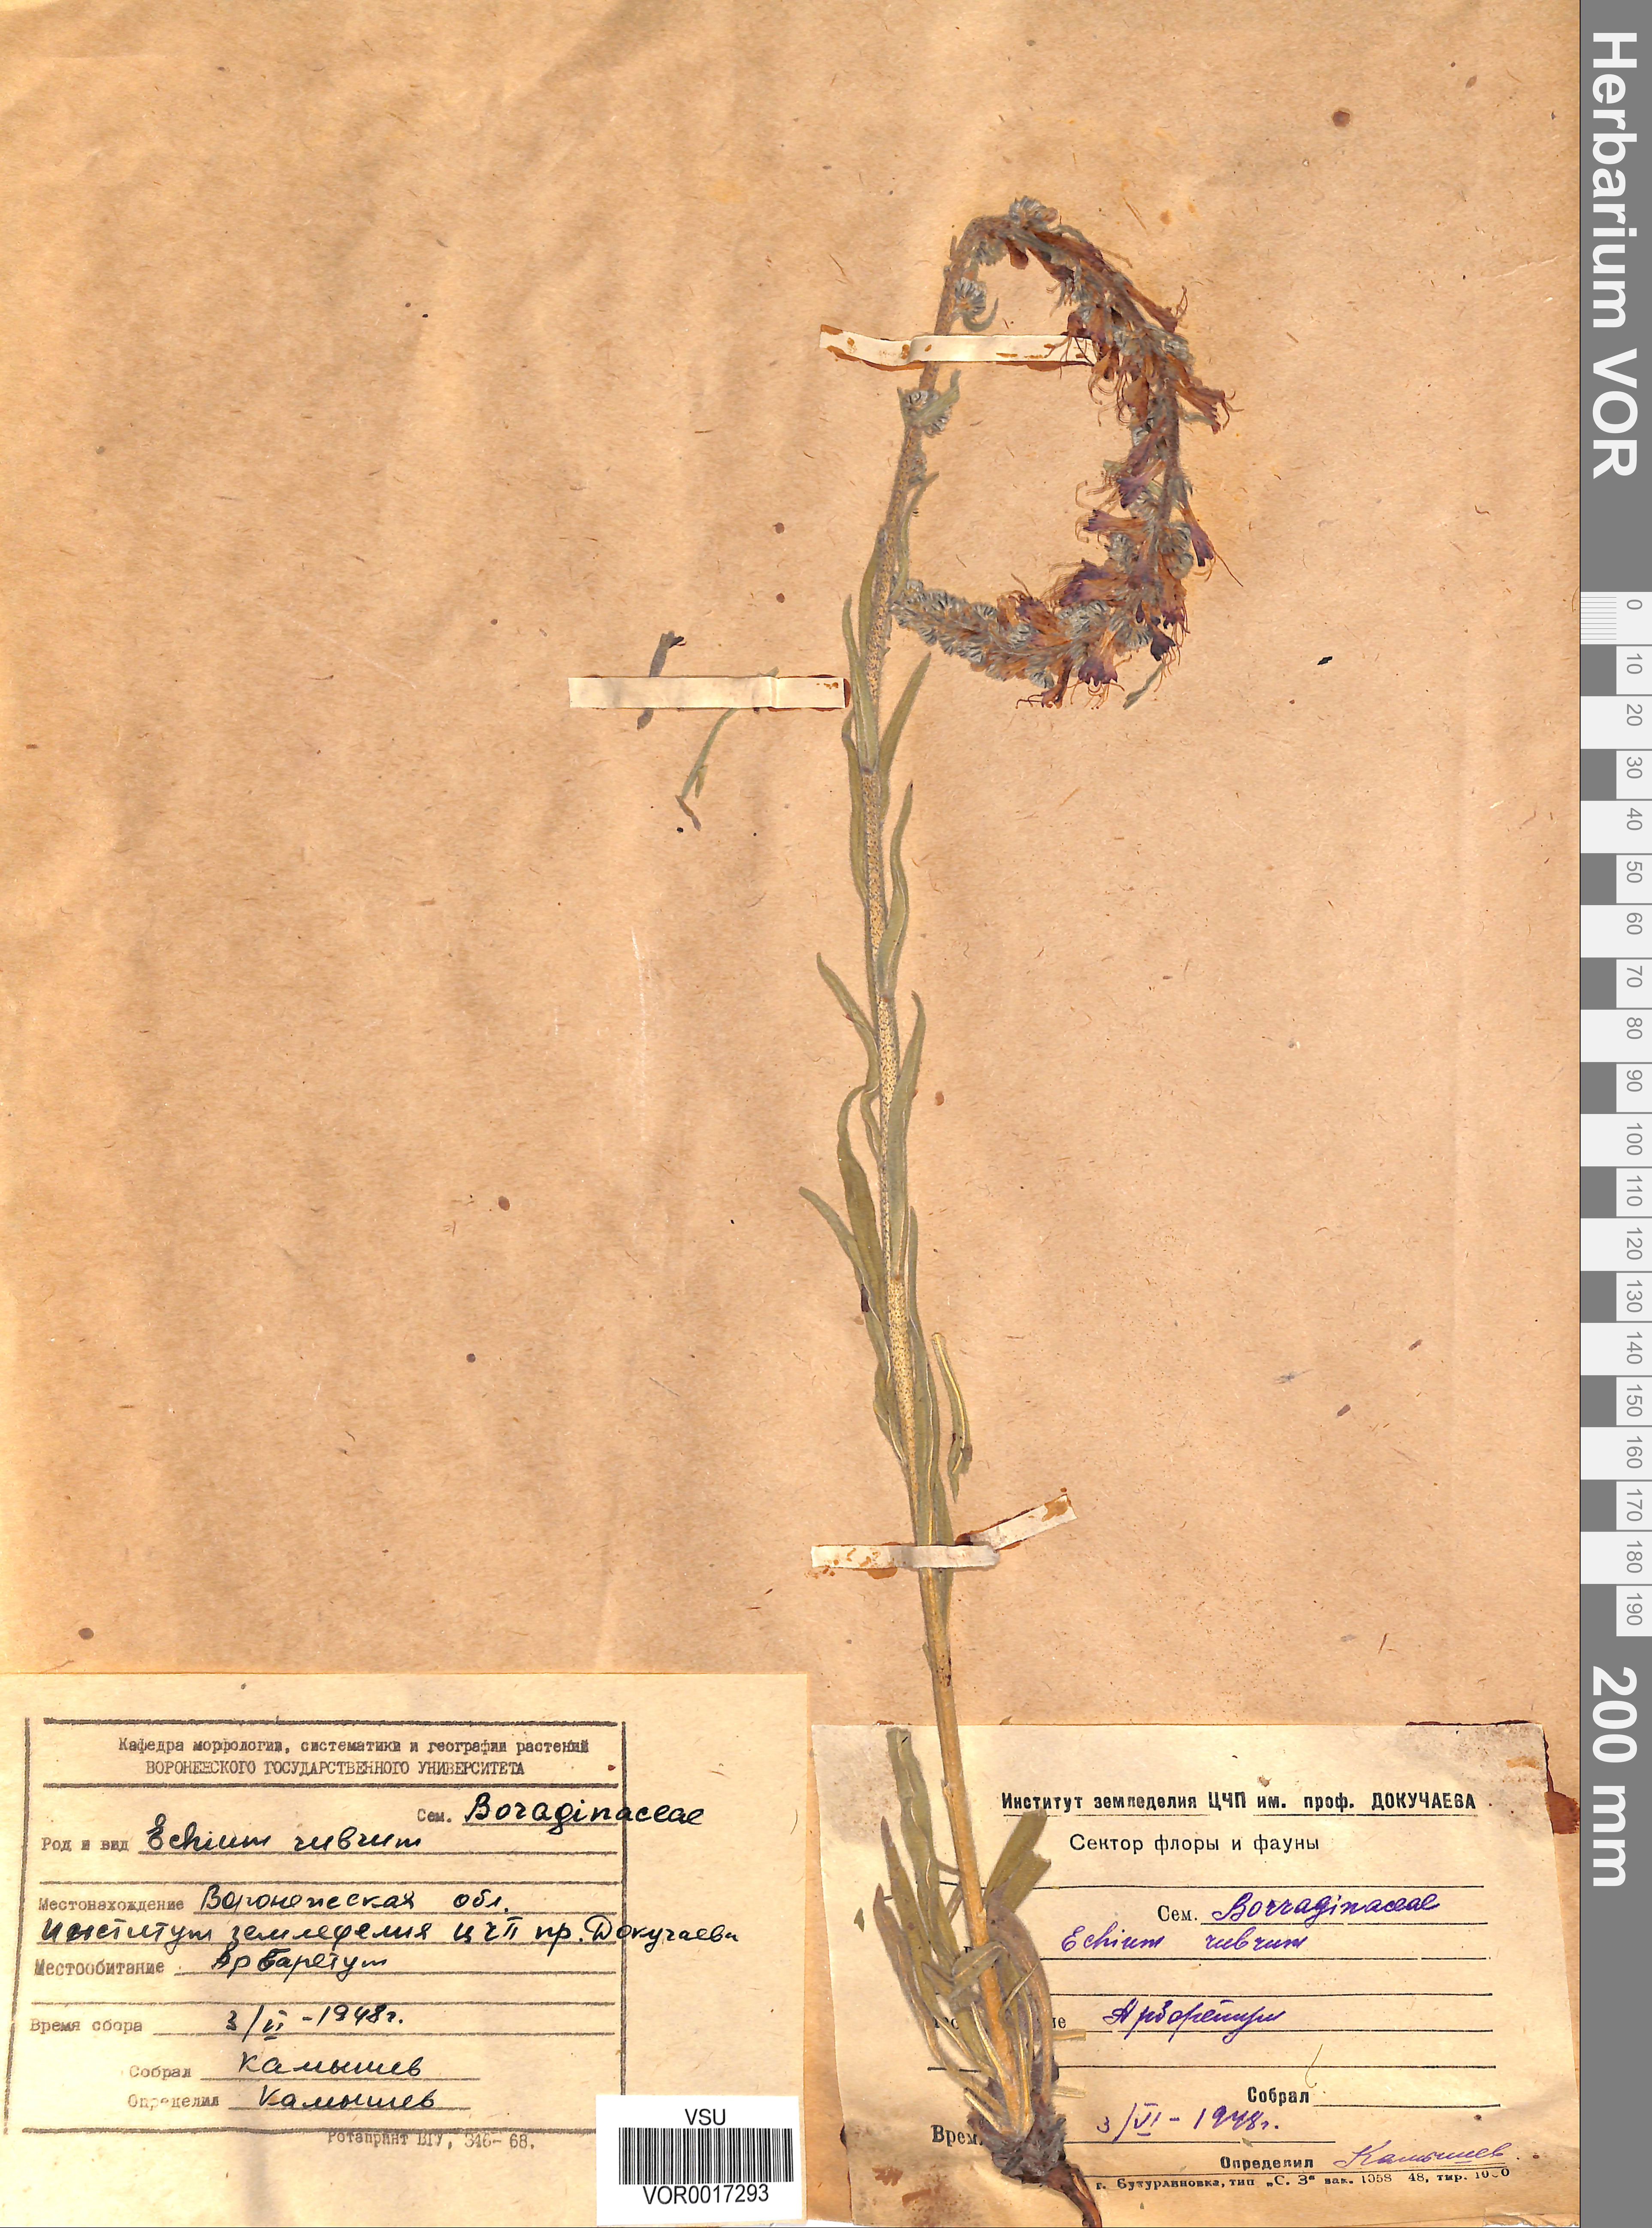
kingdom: Plantae
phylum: Tracheophyta
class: Magnoliopsida
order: Boraginales
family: Boraginaceae
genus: Pontechium
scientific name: Pontechium maculatum
